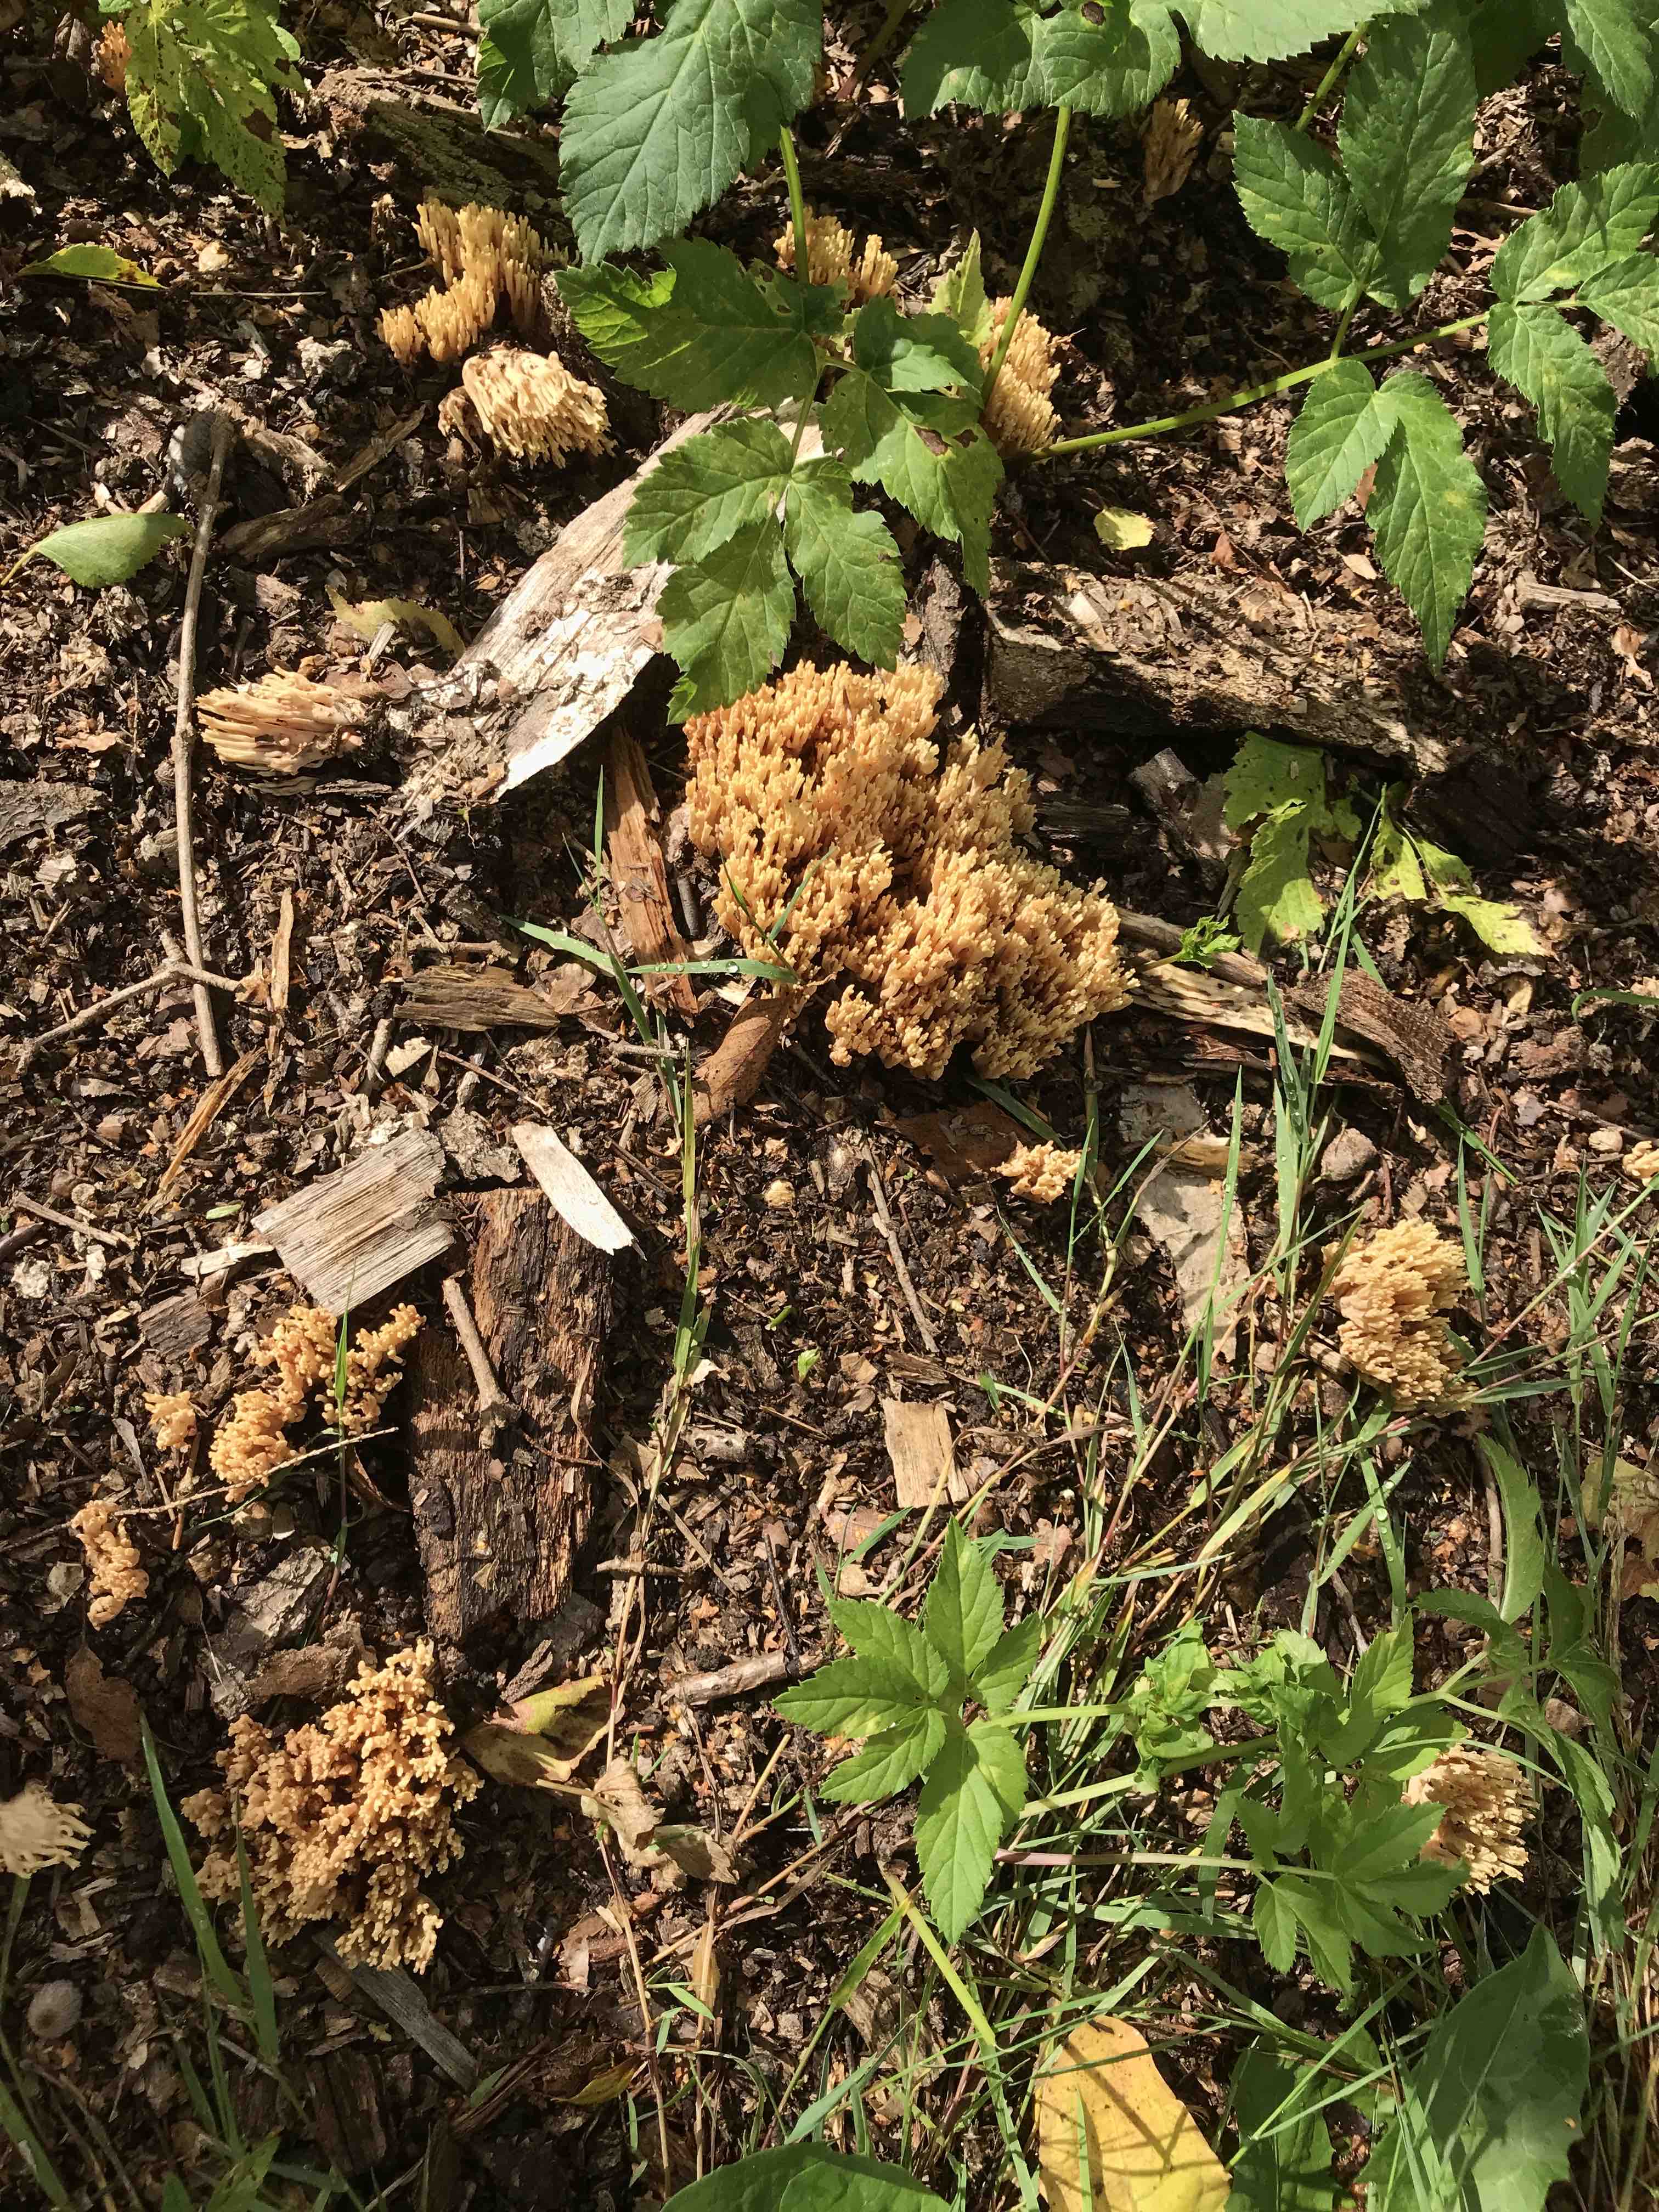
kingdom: Fungi
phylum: Basidiomycota
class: Agaricomycetes
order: Gomphales
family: Gomphaceae
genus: Ramaria
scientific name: Ramaria stricta
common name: rank koralsvamp
